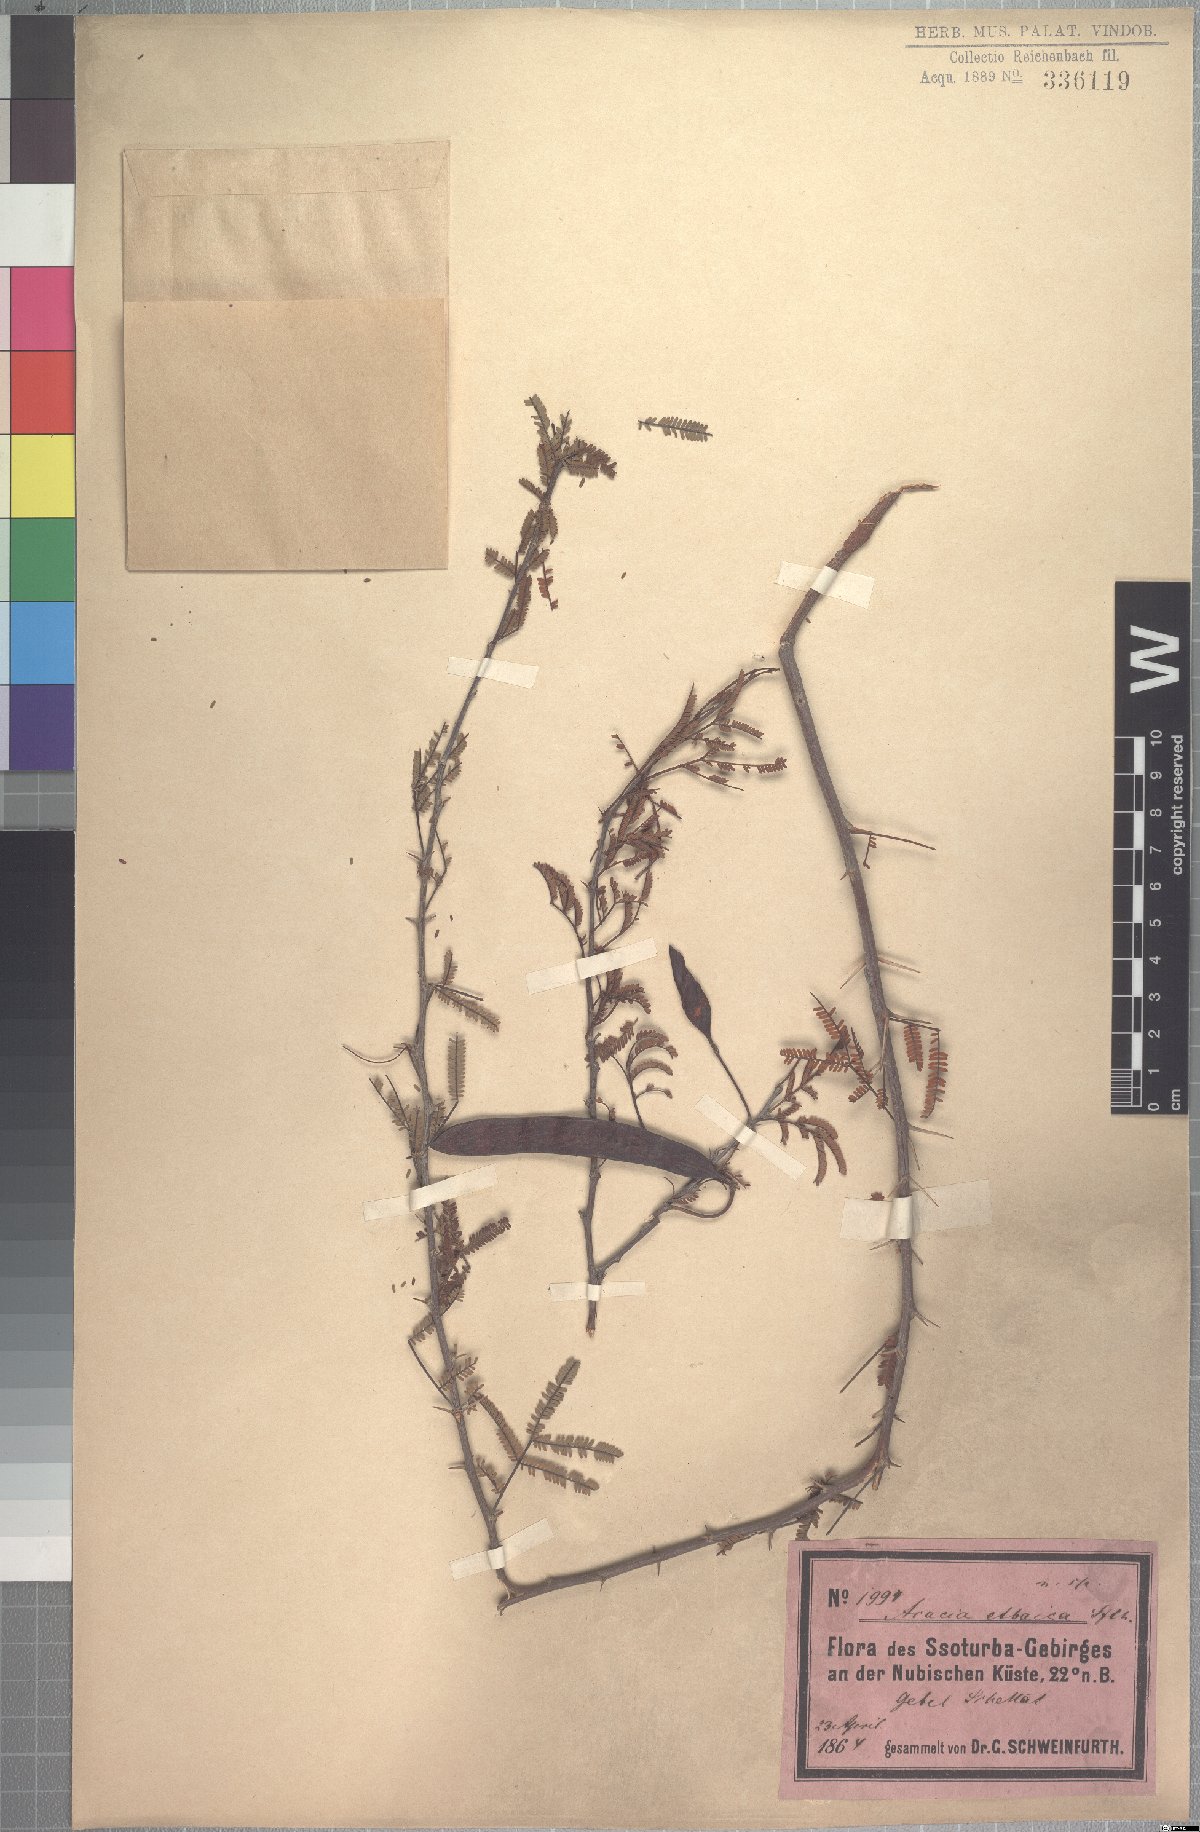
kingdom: Plantae
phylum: Tracheophyta
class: Magnoliopsida
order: Fabales
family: Fabaceae
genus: Vachellia
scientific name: Vachellia etbaica
